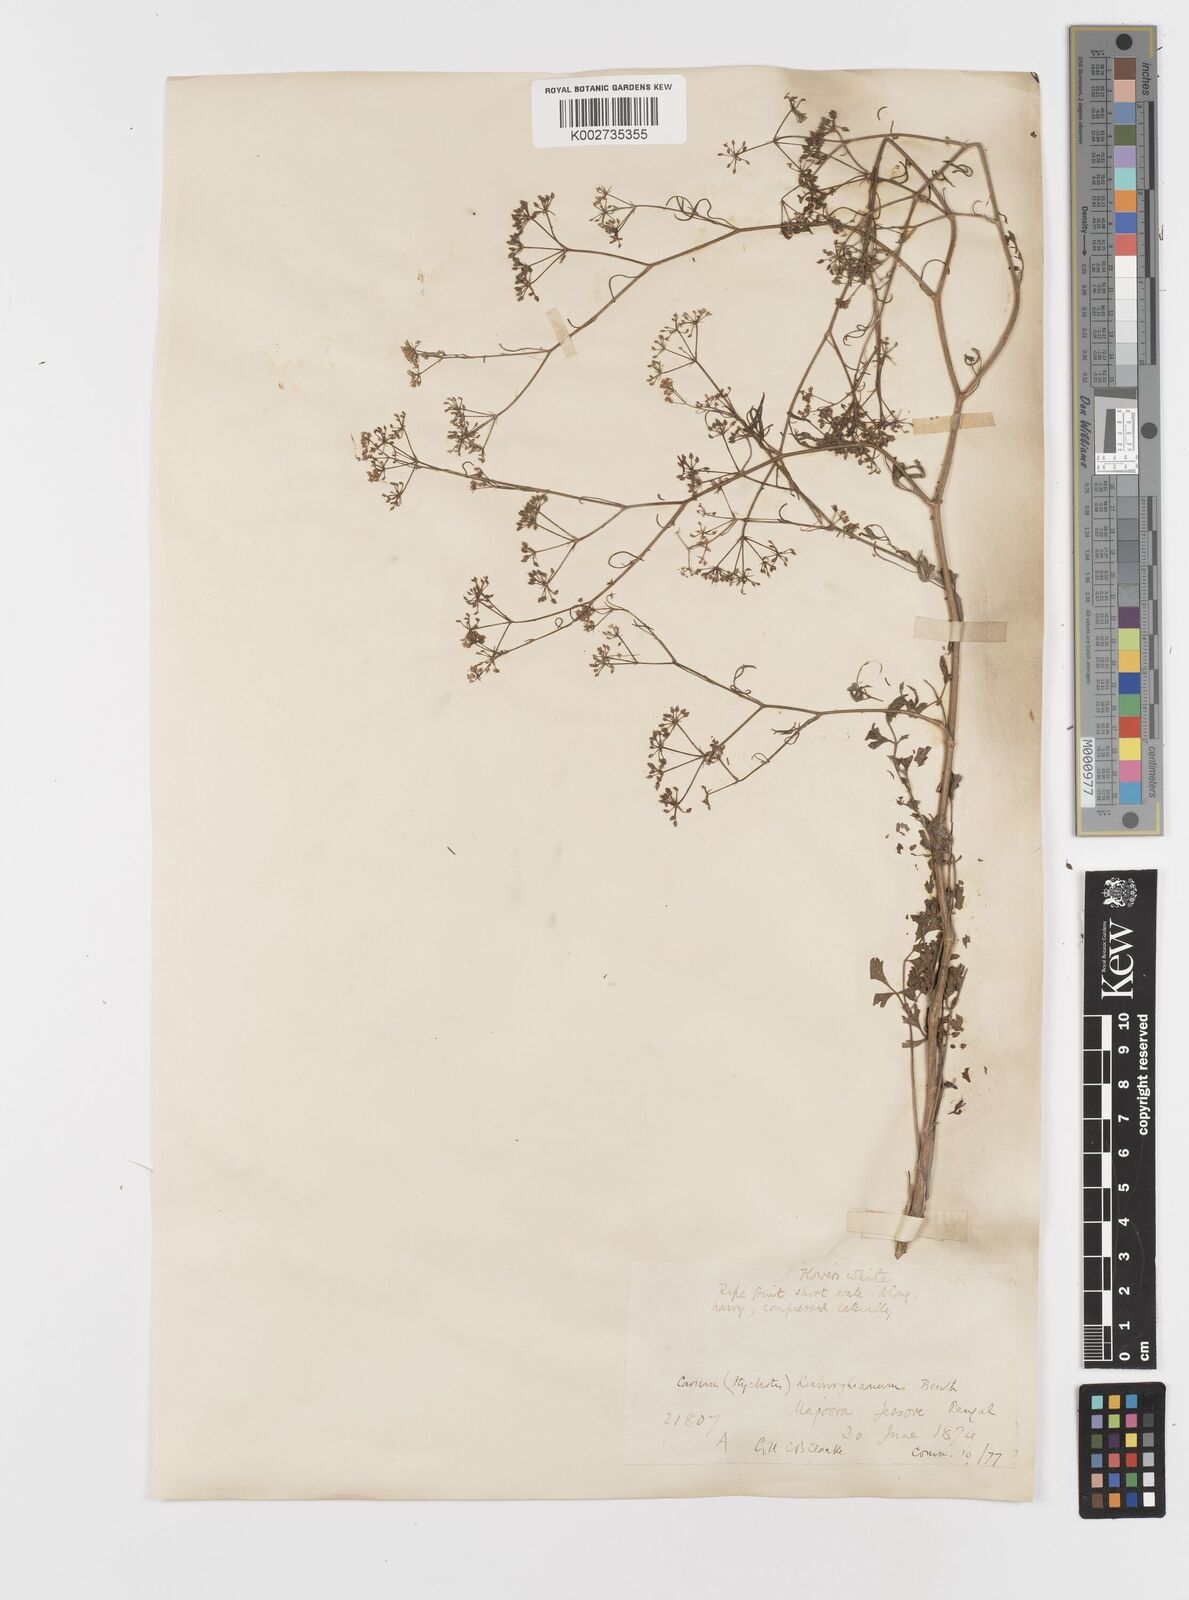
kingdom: Plantae
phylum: Tracheophyta
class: Magnoliopsida
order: Apiales
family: Apiaceae
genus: Psammogeton
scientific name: Psammogeton involucratum
